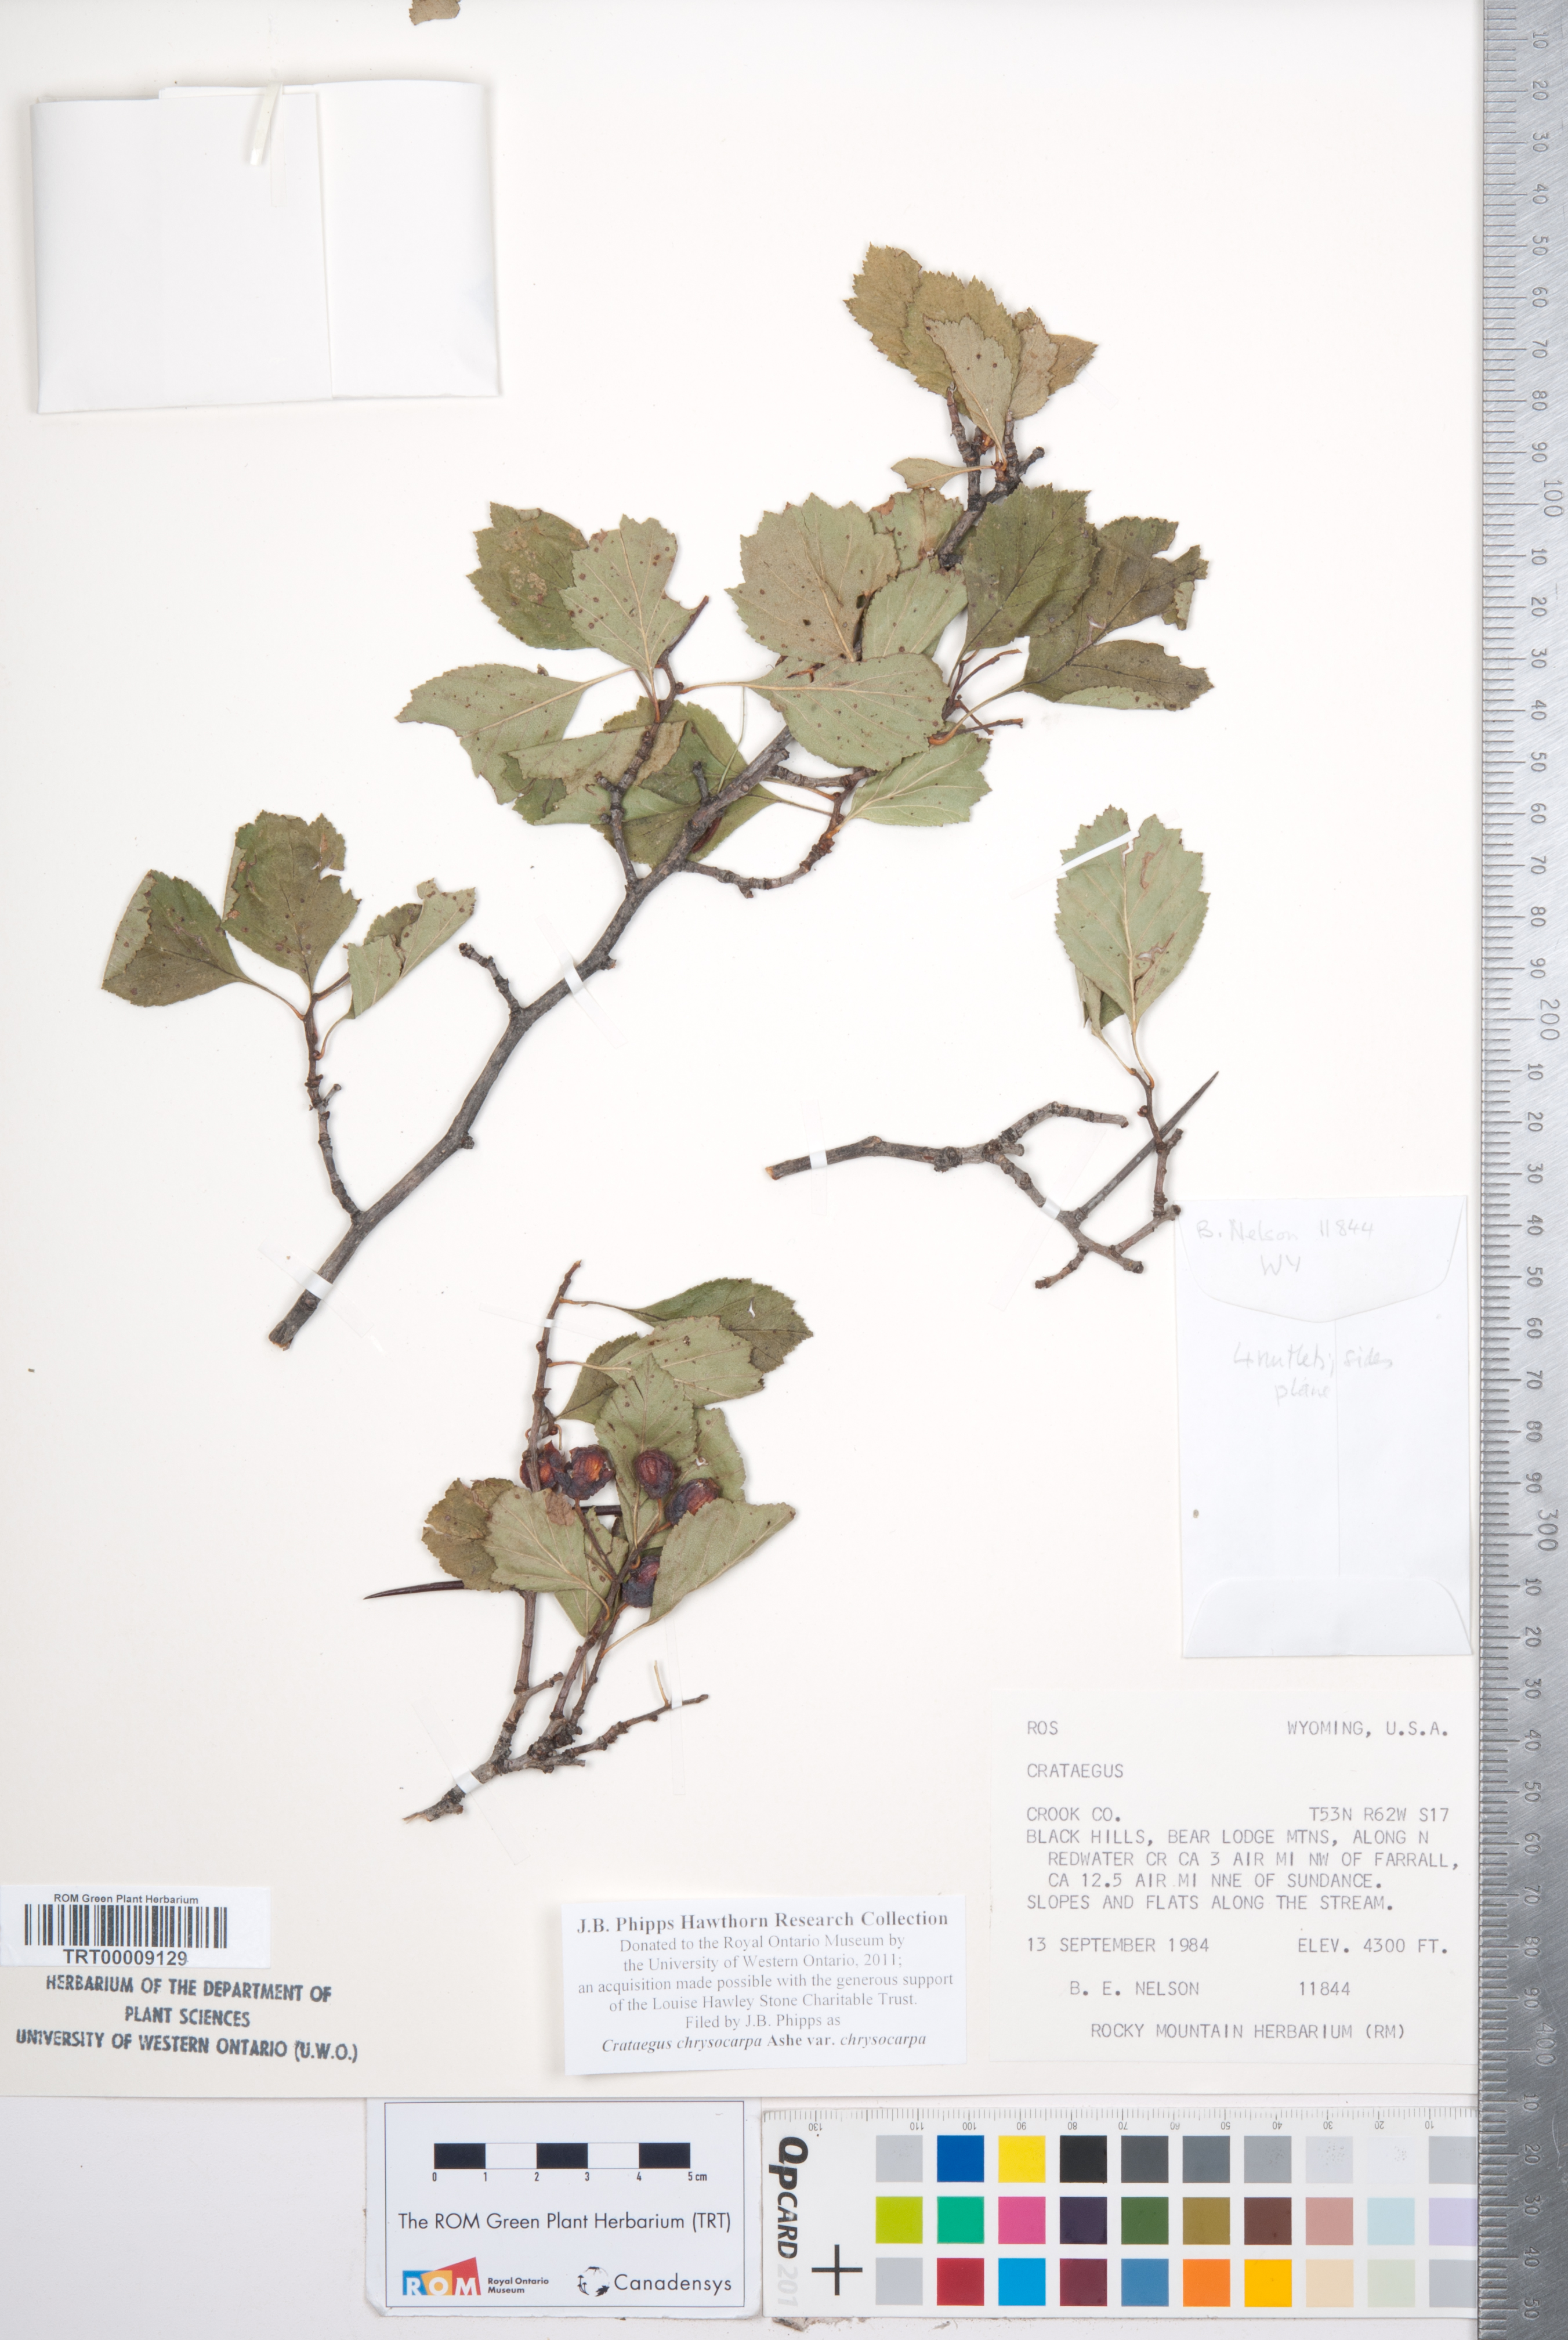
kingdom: Plantae
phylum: Tracheophyta
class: Magnoliopsida
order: Rosales
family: Rosaceae
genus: Crataegus
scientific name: Crataegus chrysocarpa
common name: Fire-berry hawthorn
